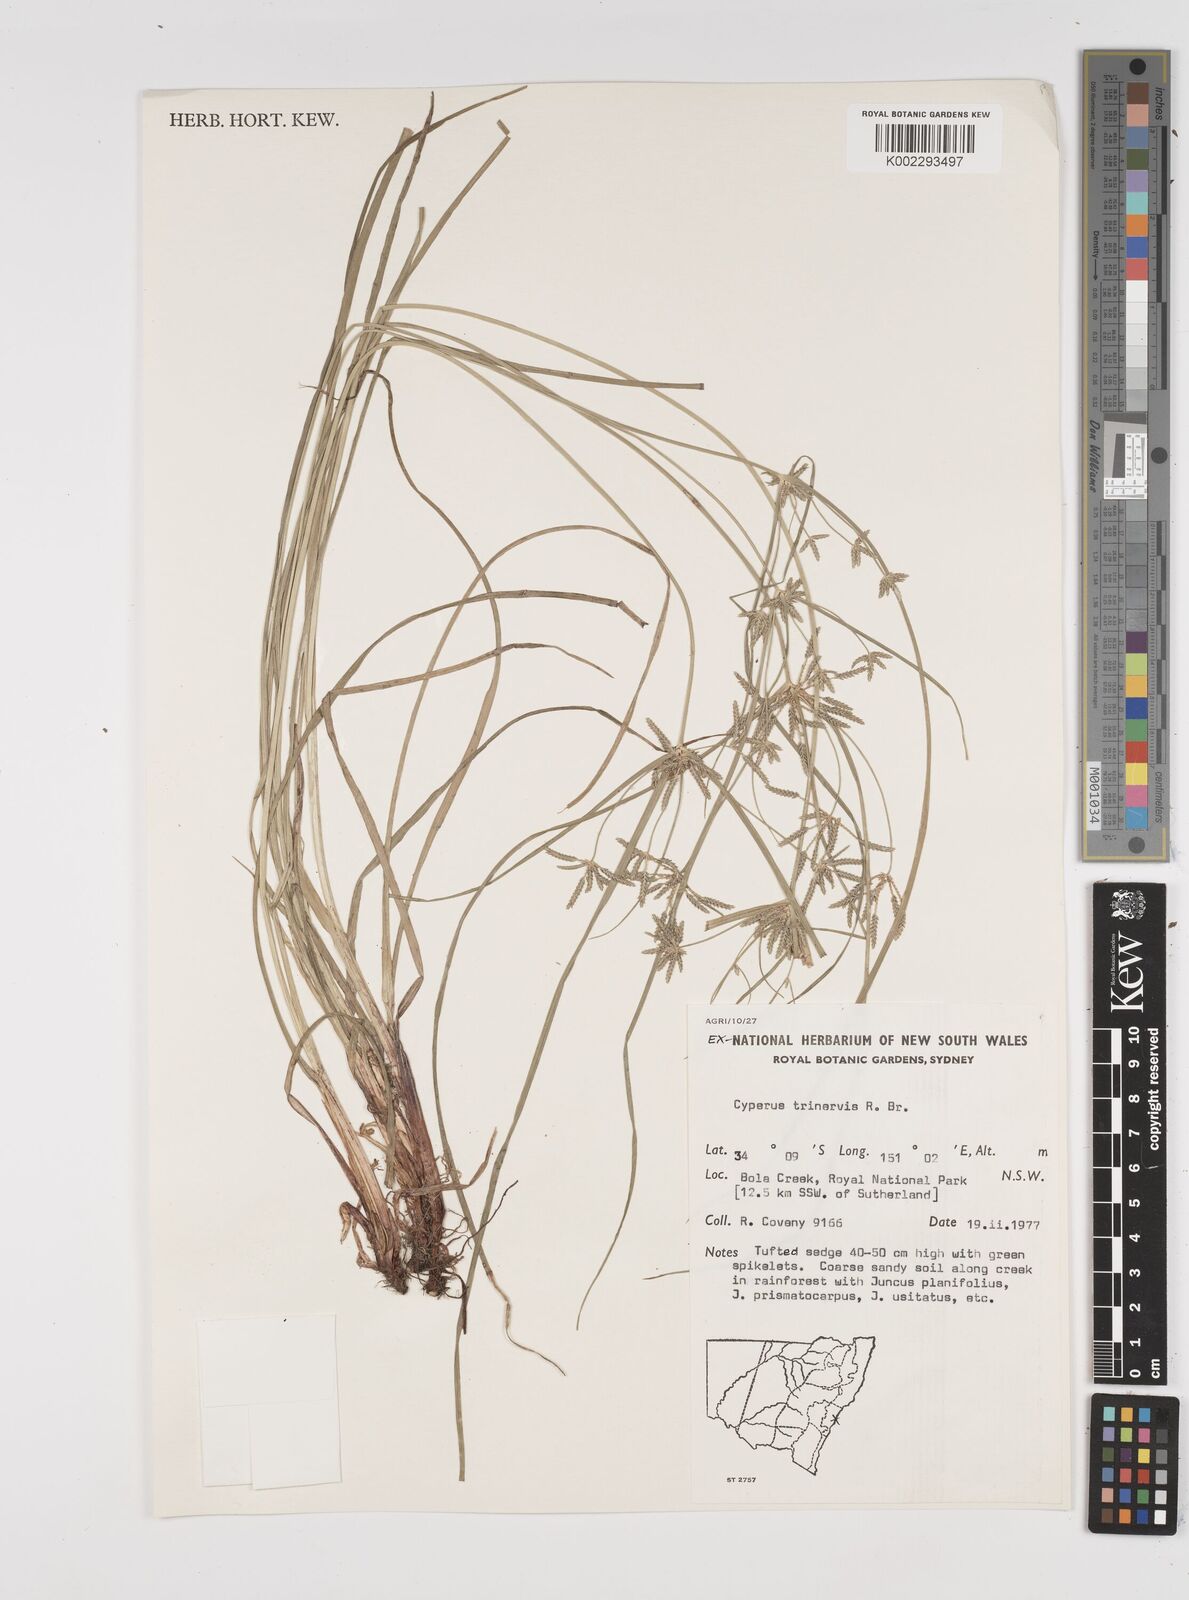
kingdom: Plantae
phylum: Tracheophyta
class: Liliopsida
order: Poales
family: Cyperaceae
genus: Cyperus
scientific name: Cyperus trinervis
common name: Australian flatsedge
